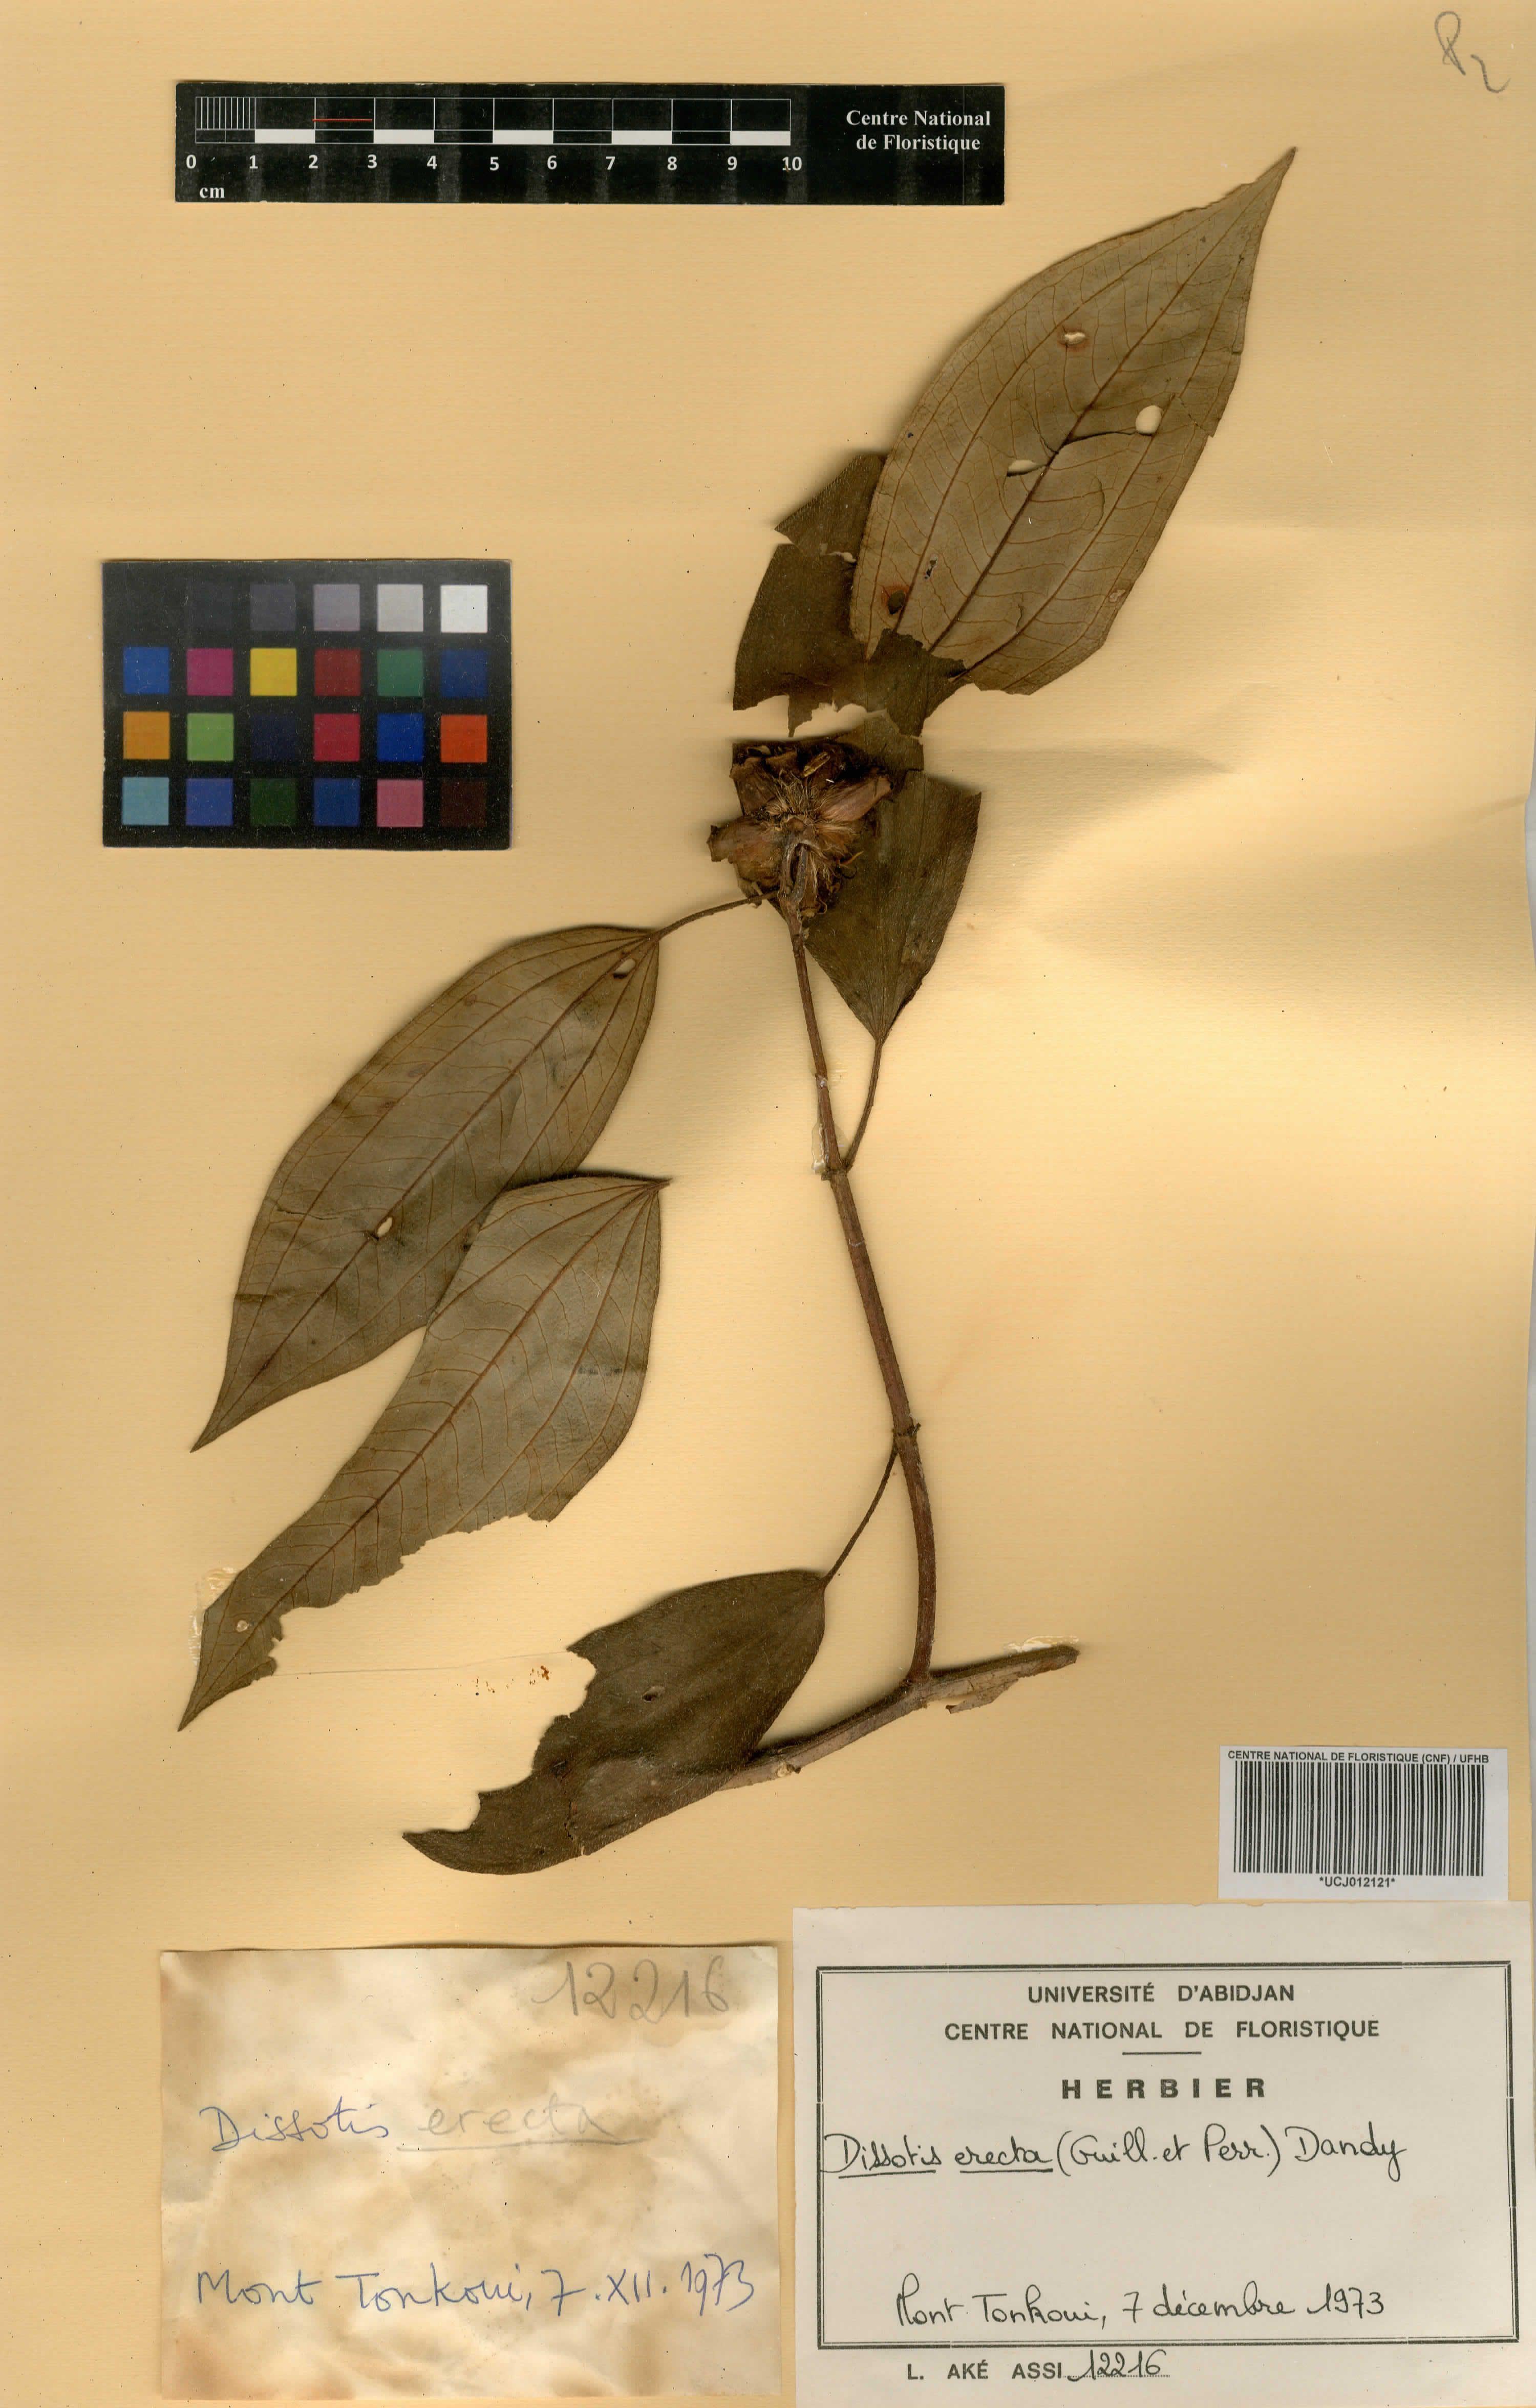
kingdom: Plantae
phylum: Tracheophyta
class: Magnoliopsida
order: Myrtales
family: Melastomataceae
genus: Melastomastrum
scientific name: Melastomastrum capitatum
